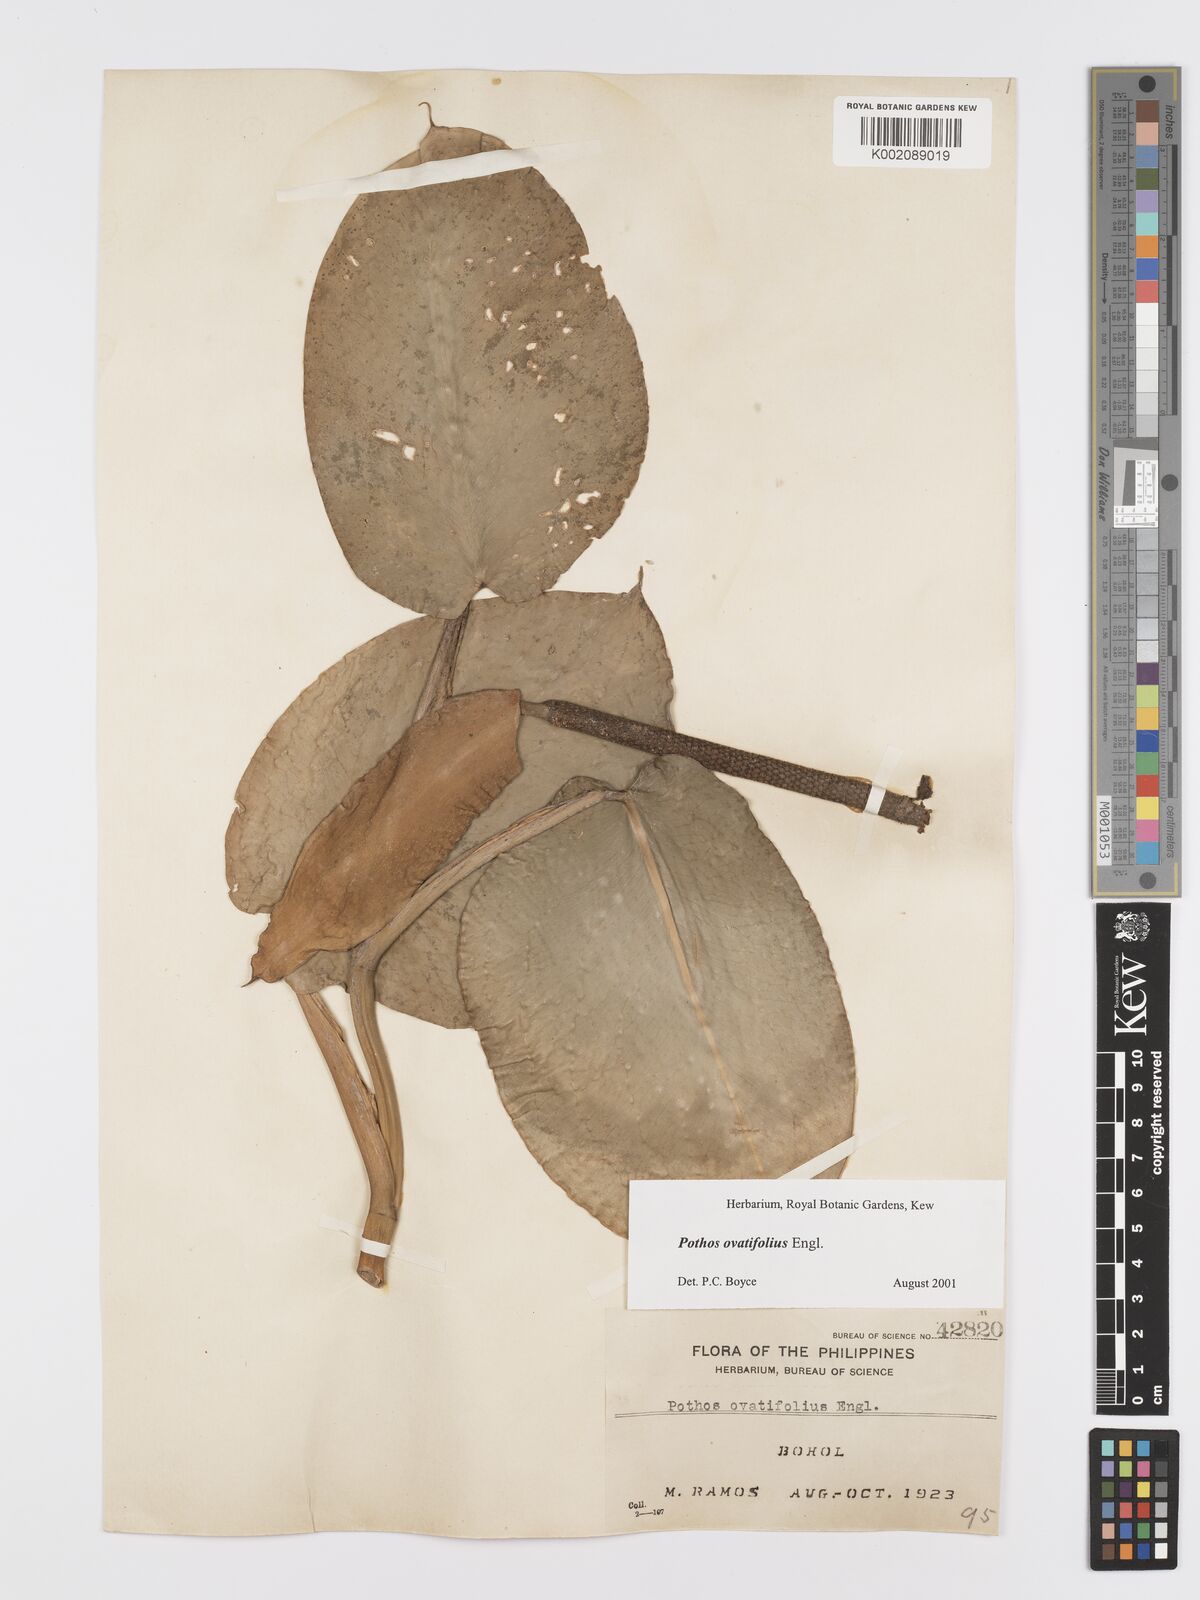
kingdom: Plantae
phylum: Tracheophyta
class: Liliopsida
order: Alismatales
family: Araceae
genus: Pothos
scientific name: Pothos ovatifolius
